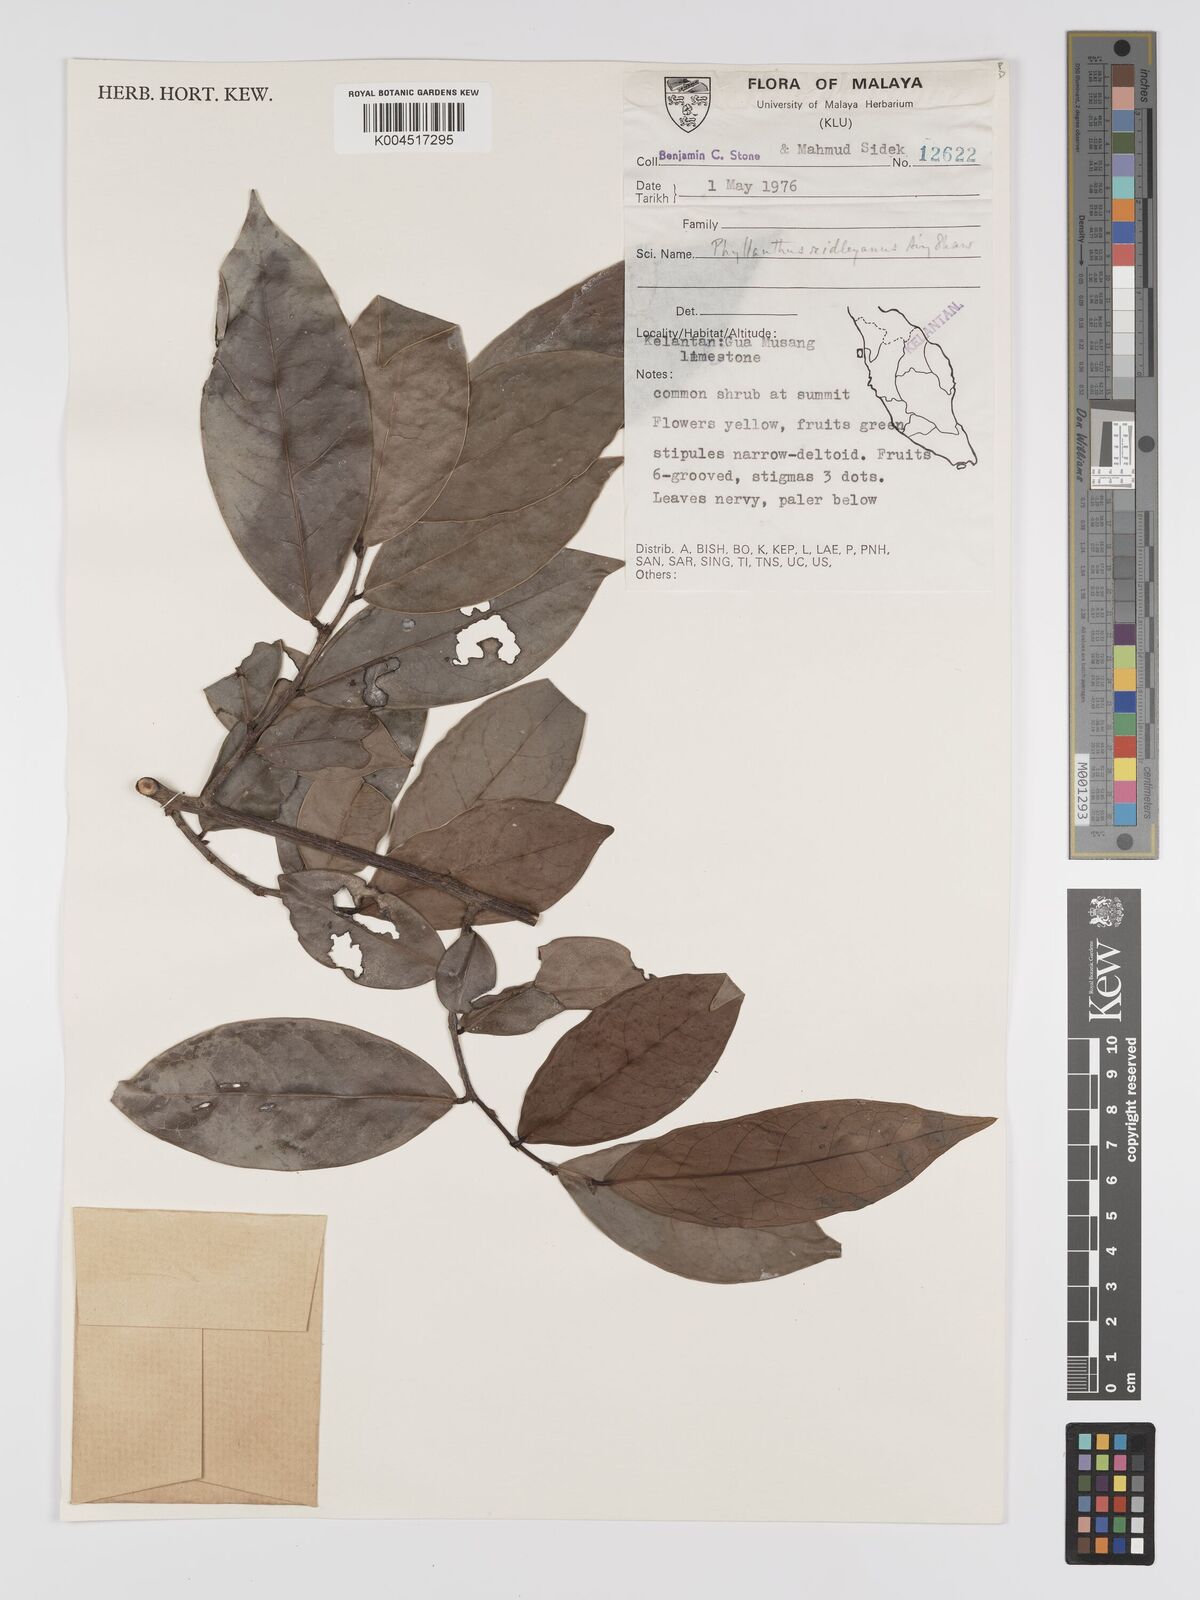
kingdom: Plantae
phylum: Tracheophyta
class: Magnoliopsida
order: Malpighiales
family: Phyllanthaceae
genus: Phyllanthus
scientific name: Phyllanthus ridleyanus
